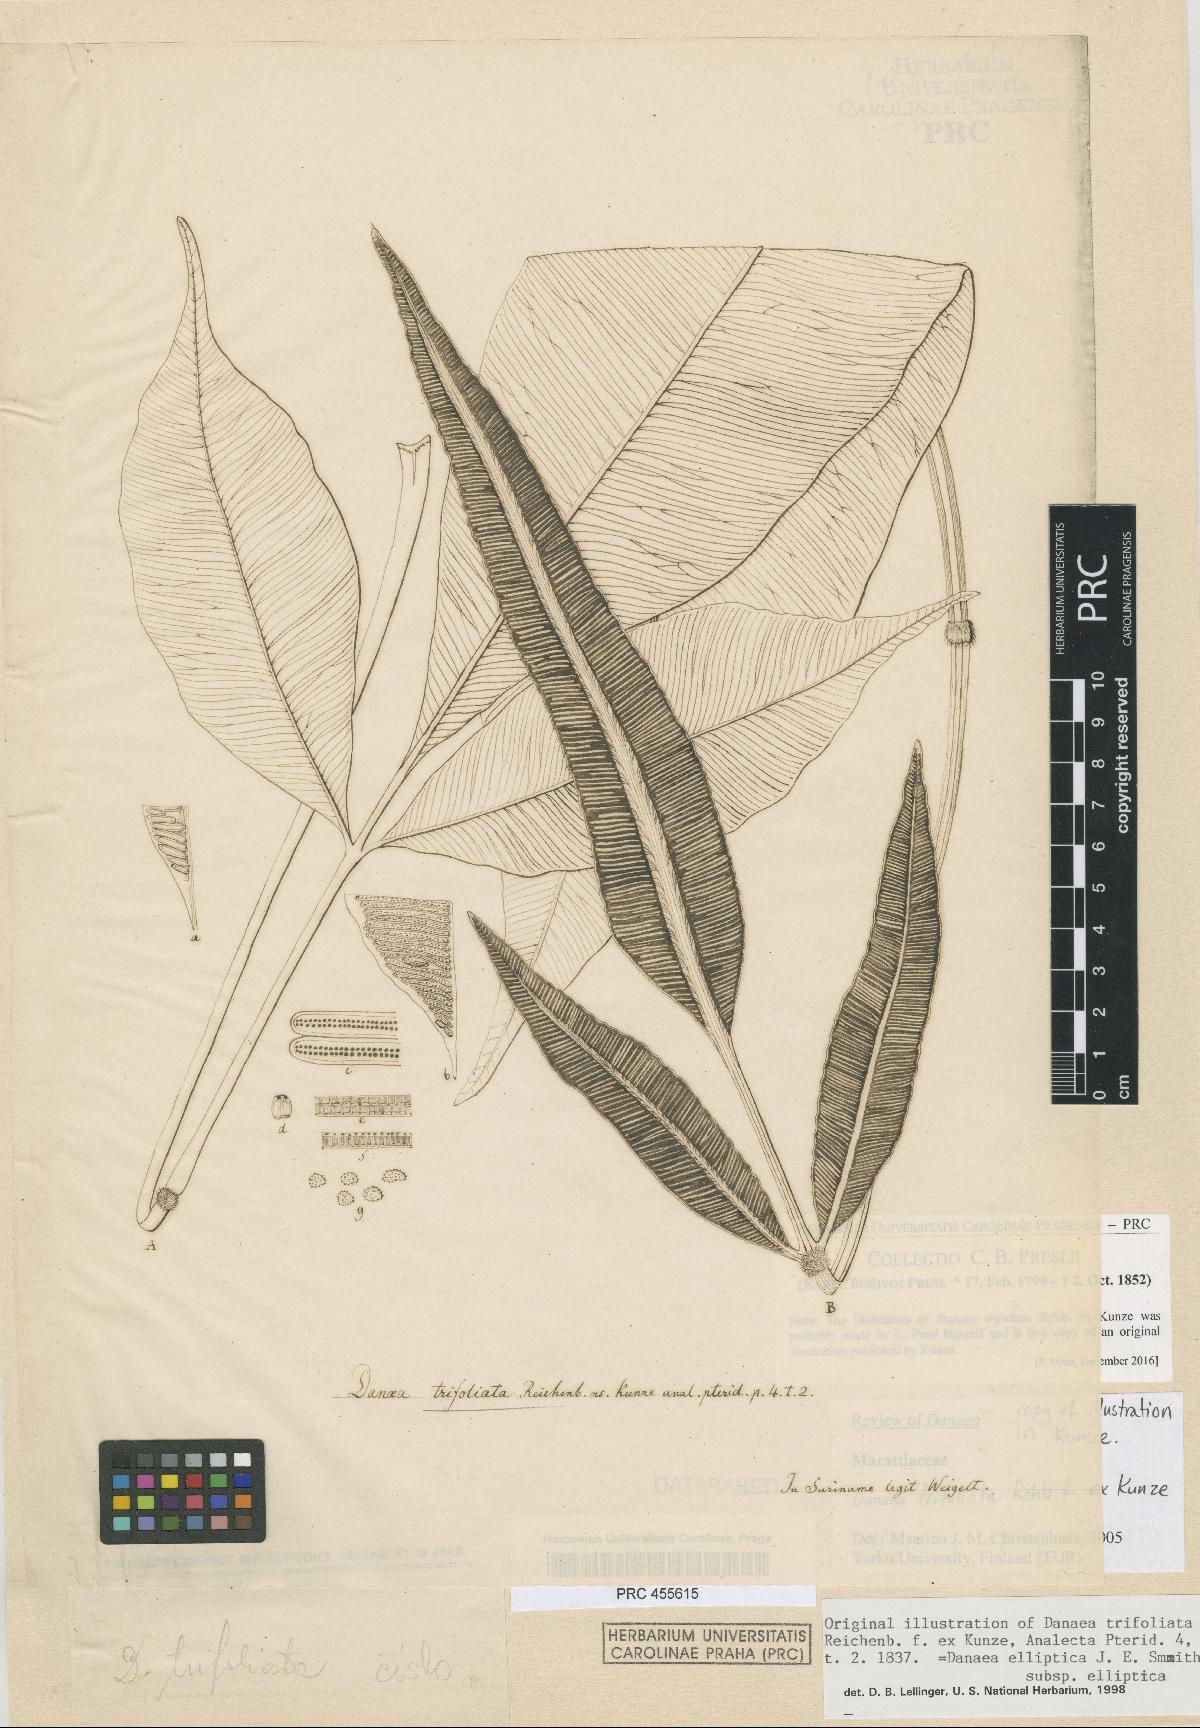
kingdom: Plantae
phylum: Tracheophyta
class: Polypodiopsida
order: Marattiales
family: Marattiaceae
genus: Danaea
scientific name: Danaea trifoliata
